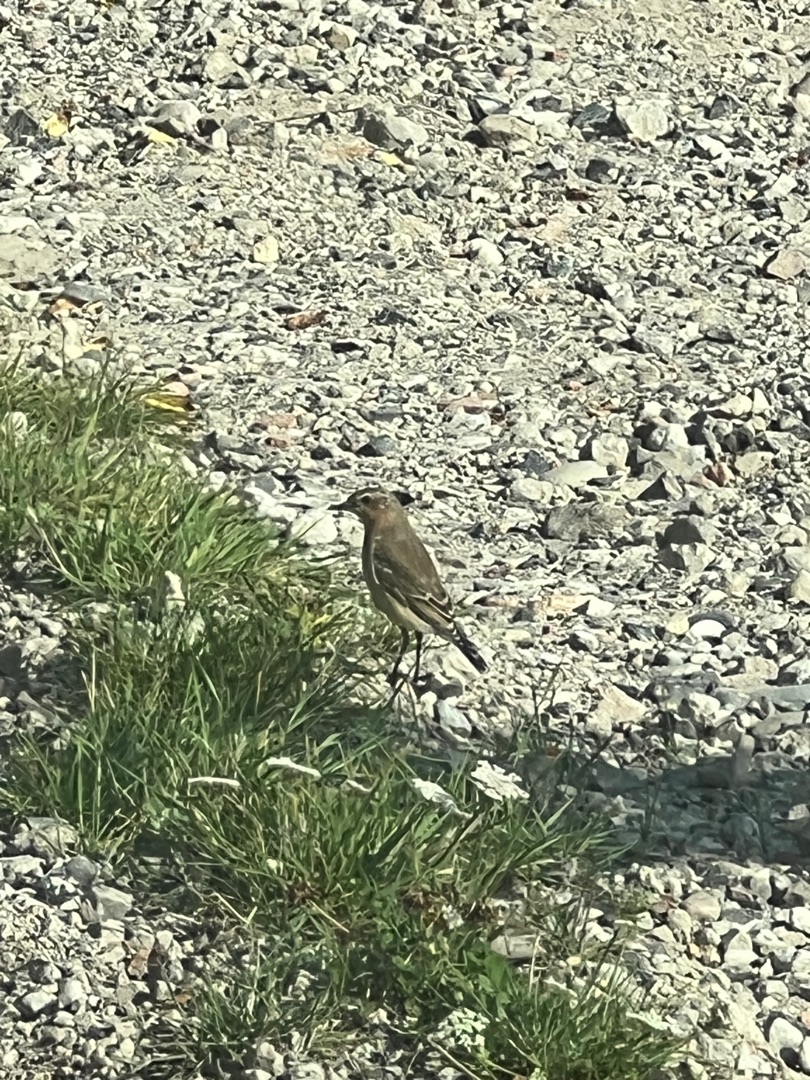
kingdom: Animalia
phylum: Chordata
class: Aves
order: Passeriformes
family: Muscicapidae
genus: Oenanthe
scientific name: Oenanthe oenanthe
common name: Stenpikker
